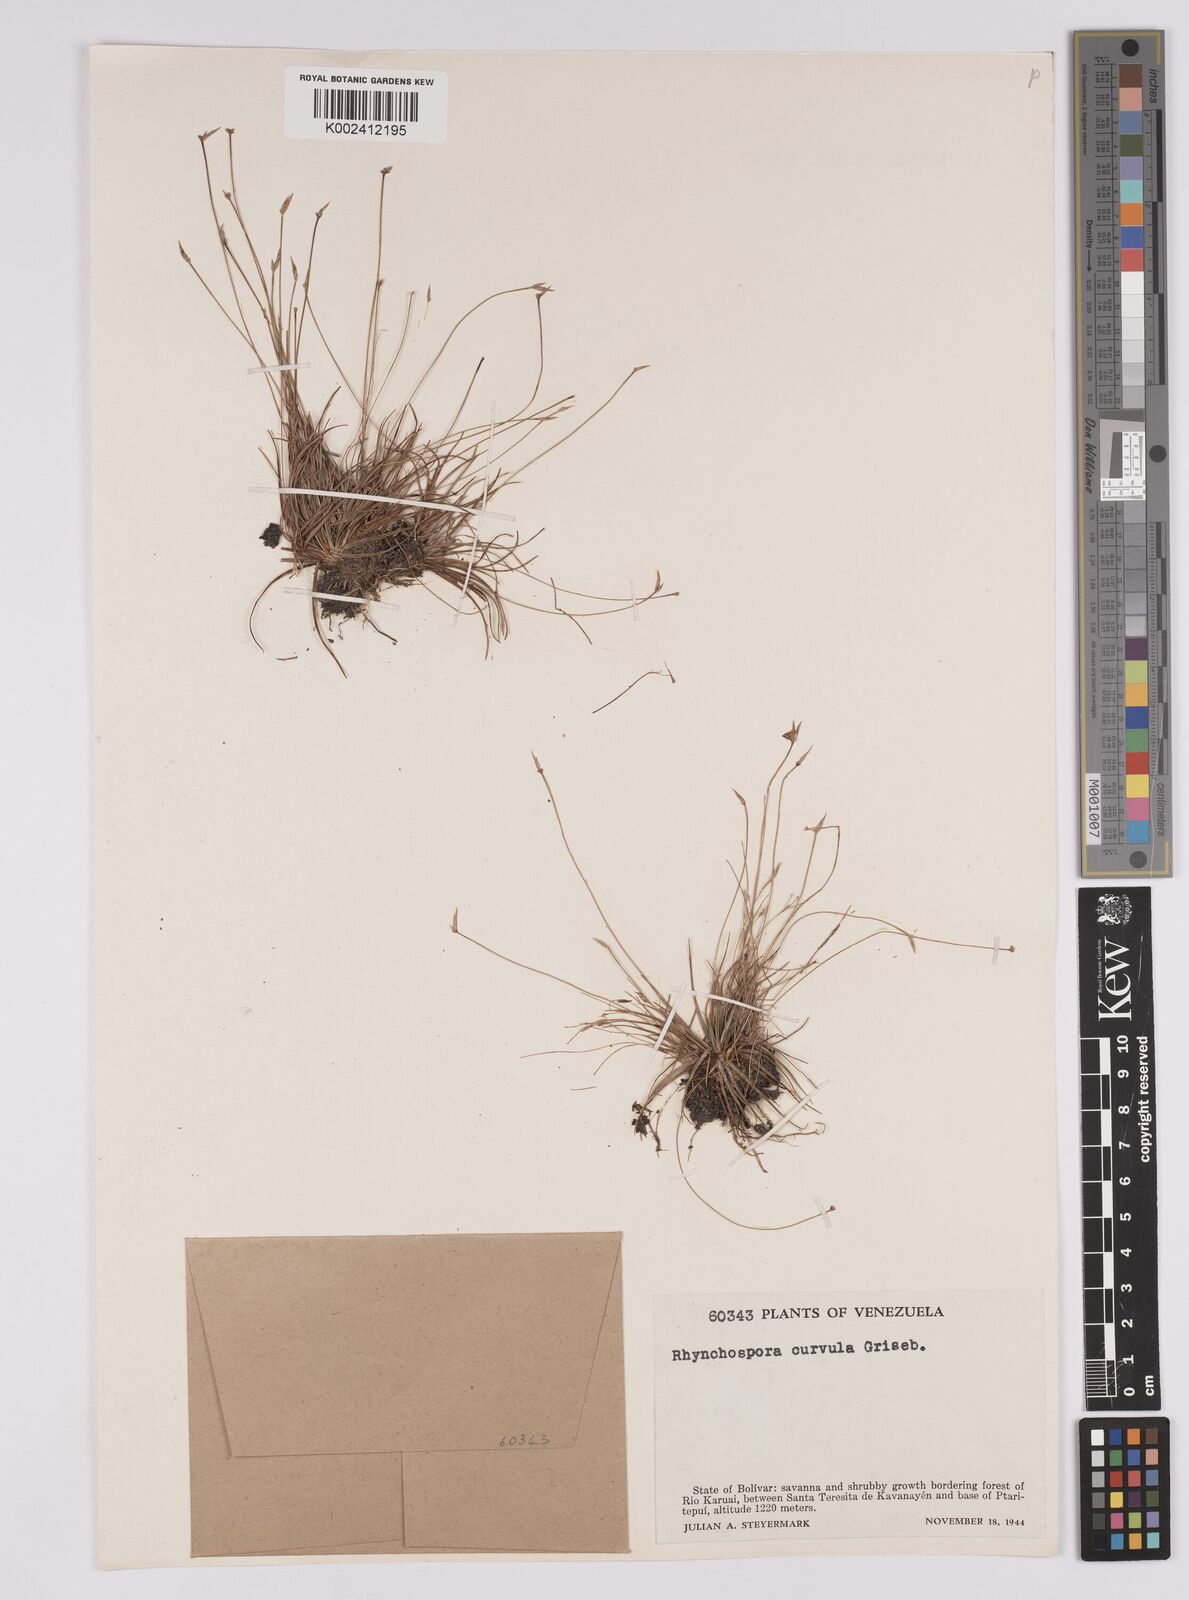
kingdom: Plantae
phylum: Tracheophyta
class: Liliopsida
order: Poales
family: Cyperaceae
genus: Rhynchospora
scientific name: Rhynchospora curvula
